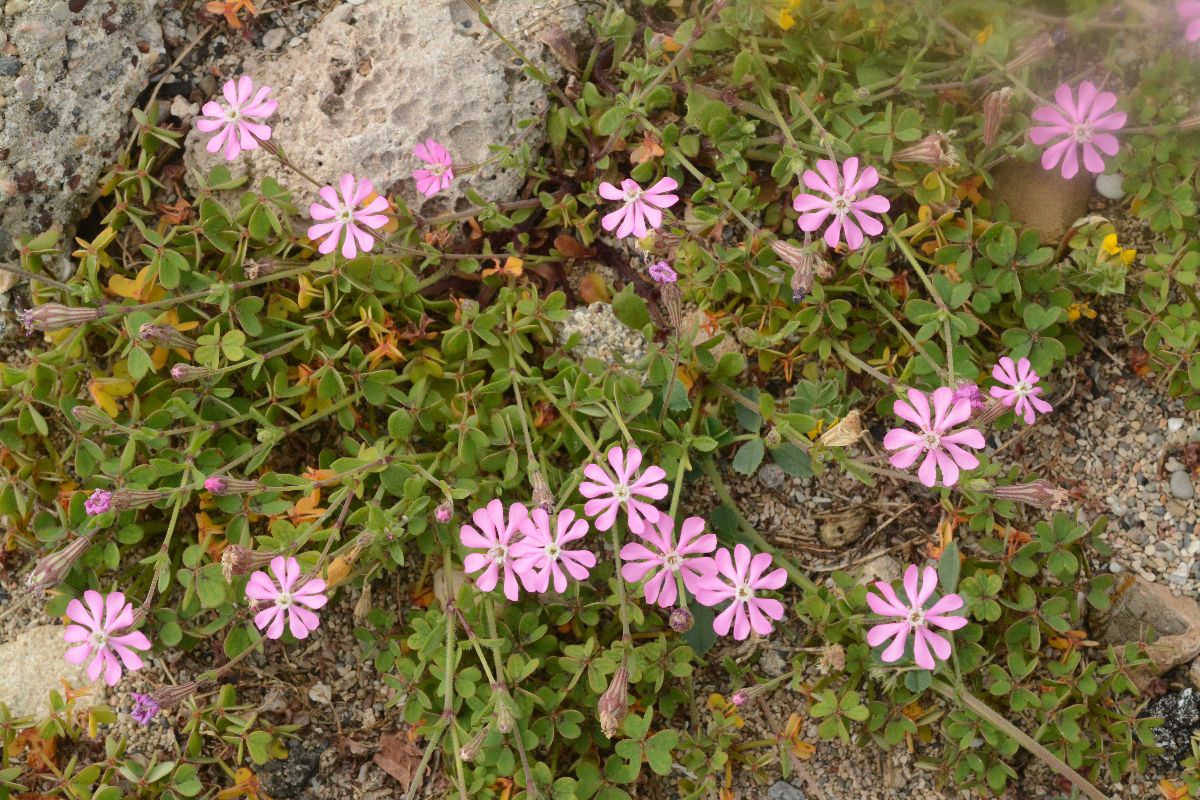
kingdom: Plantae
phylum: Tracheophyta
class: Magnoliopsida
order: Caryophyllales
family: Caryophyllaceae
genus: Silene
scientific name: Silene colorata
